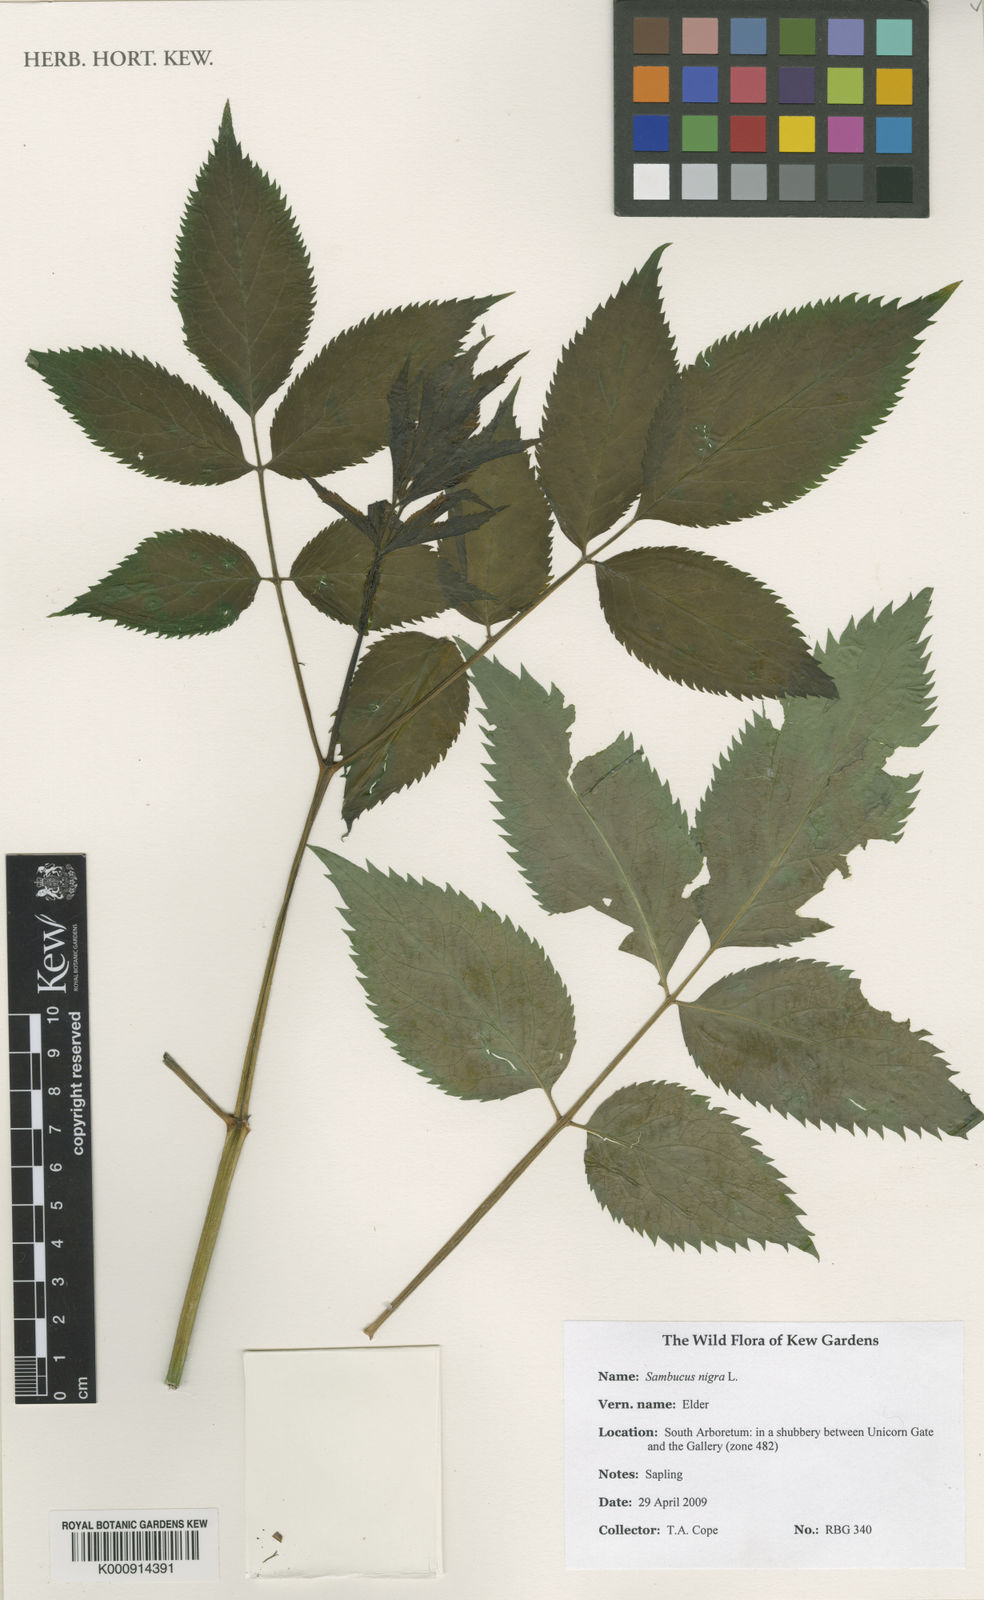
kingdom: Plantae
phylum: Tracheophyta
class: Magnoliopsida
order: Dipsacales
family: Viburnaceae
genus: Sambucus
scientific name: Sambucus nigra
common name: Elder
